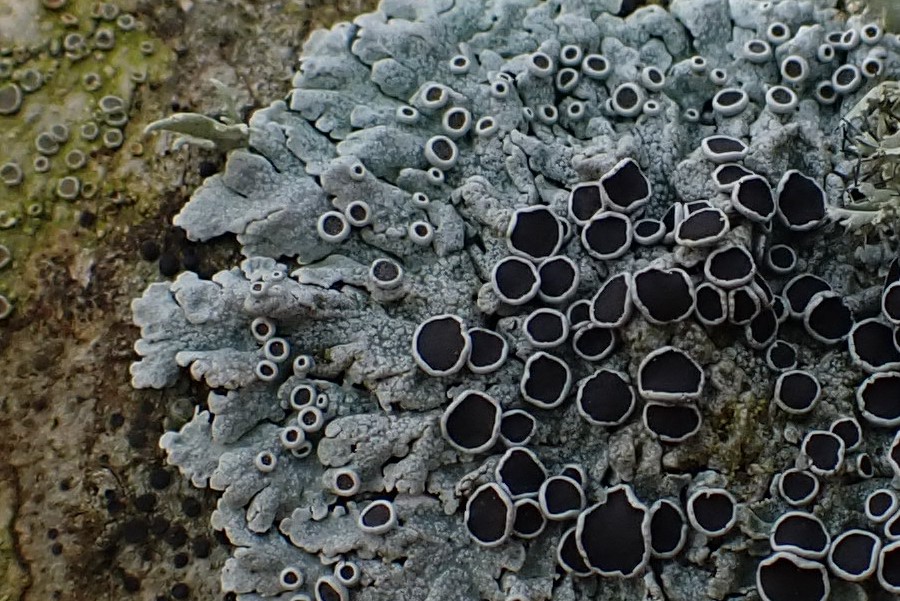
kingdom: Fungi
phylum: Ascomycota
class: Lecanoromycetes
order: Caliciales
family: Physciaceae
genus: Physcia
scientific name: Physcia aipolia
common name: hvidprikket rosetlav
